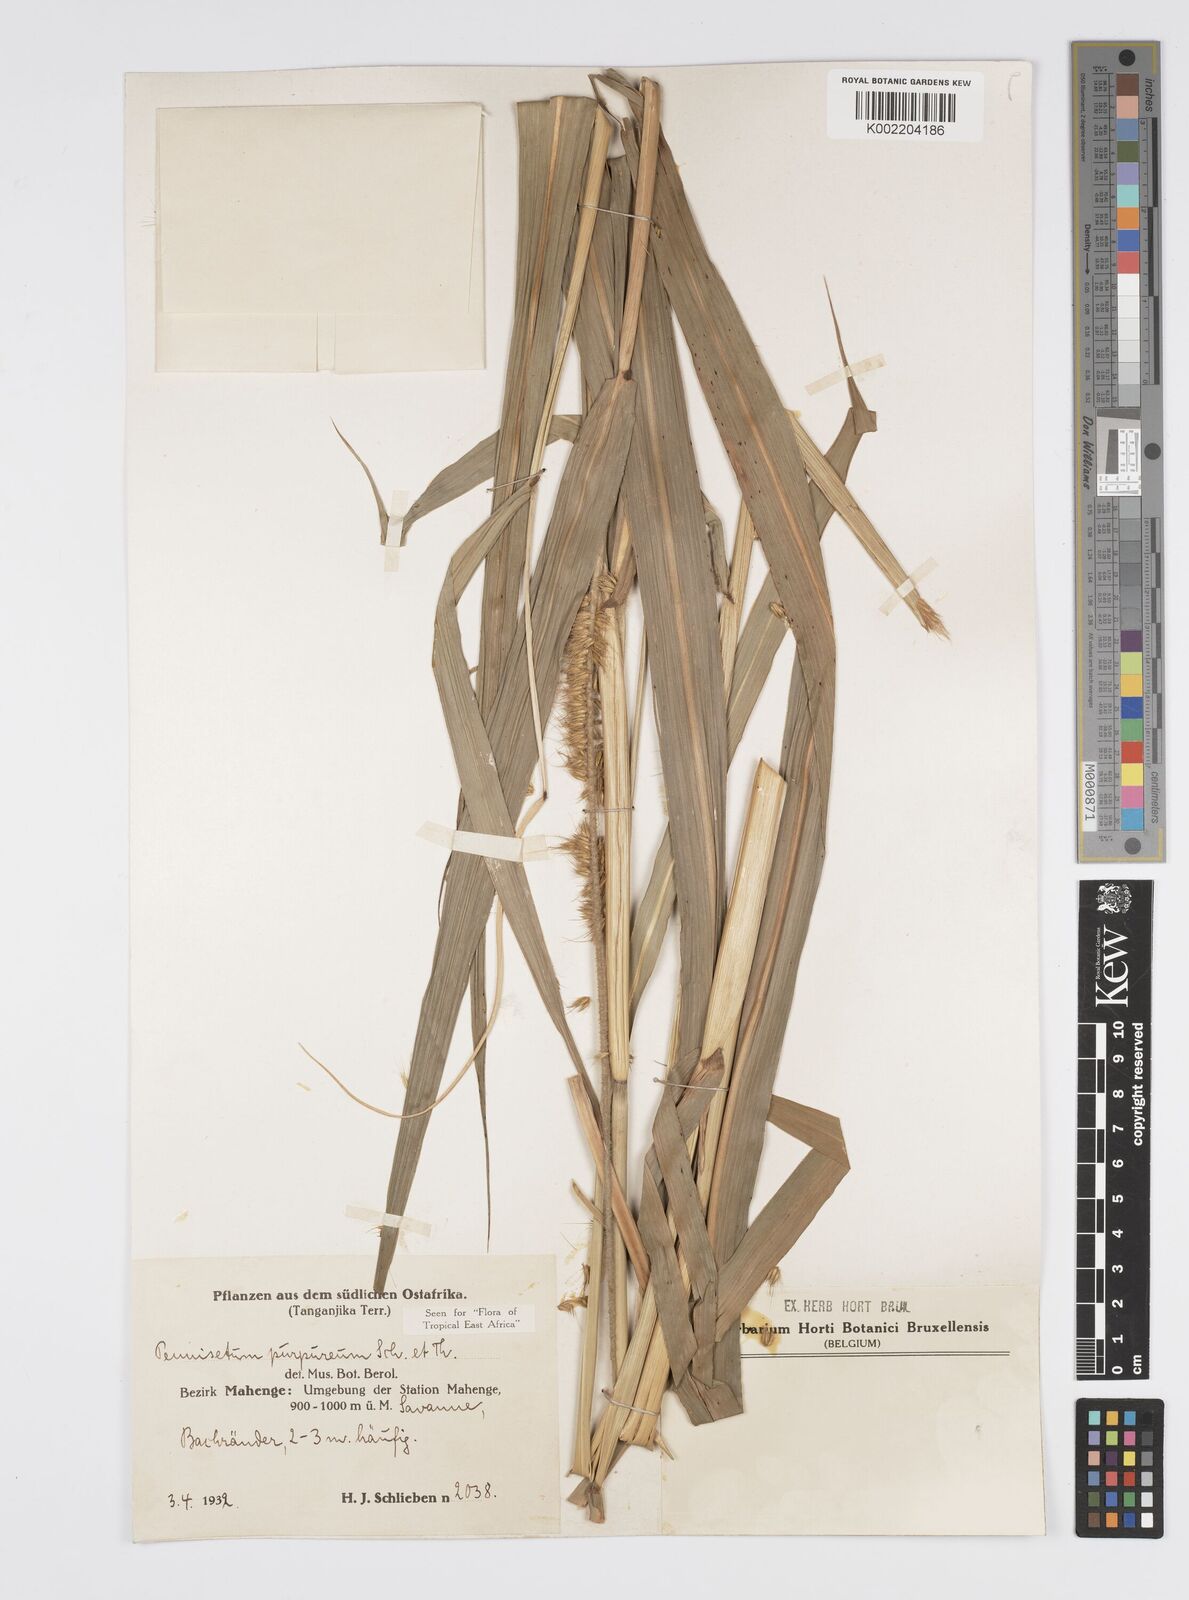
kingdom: Plantae
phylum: Tracheophyta
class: Liliopsida
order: Poales
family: Poaceae
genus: Cenchrus
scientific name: Cenchrus purpureus
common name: Elephant grass
